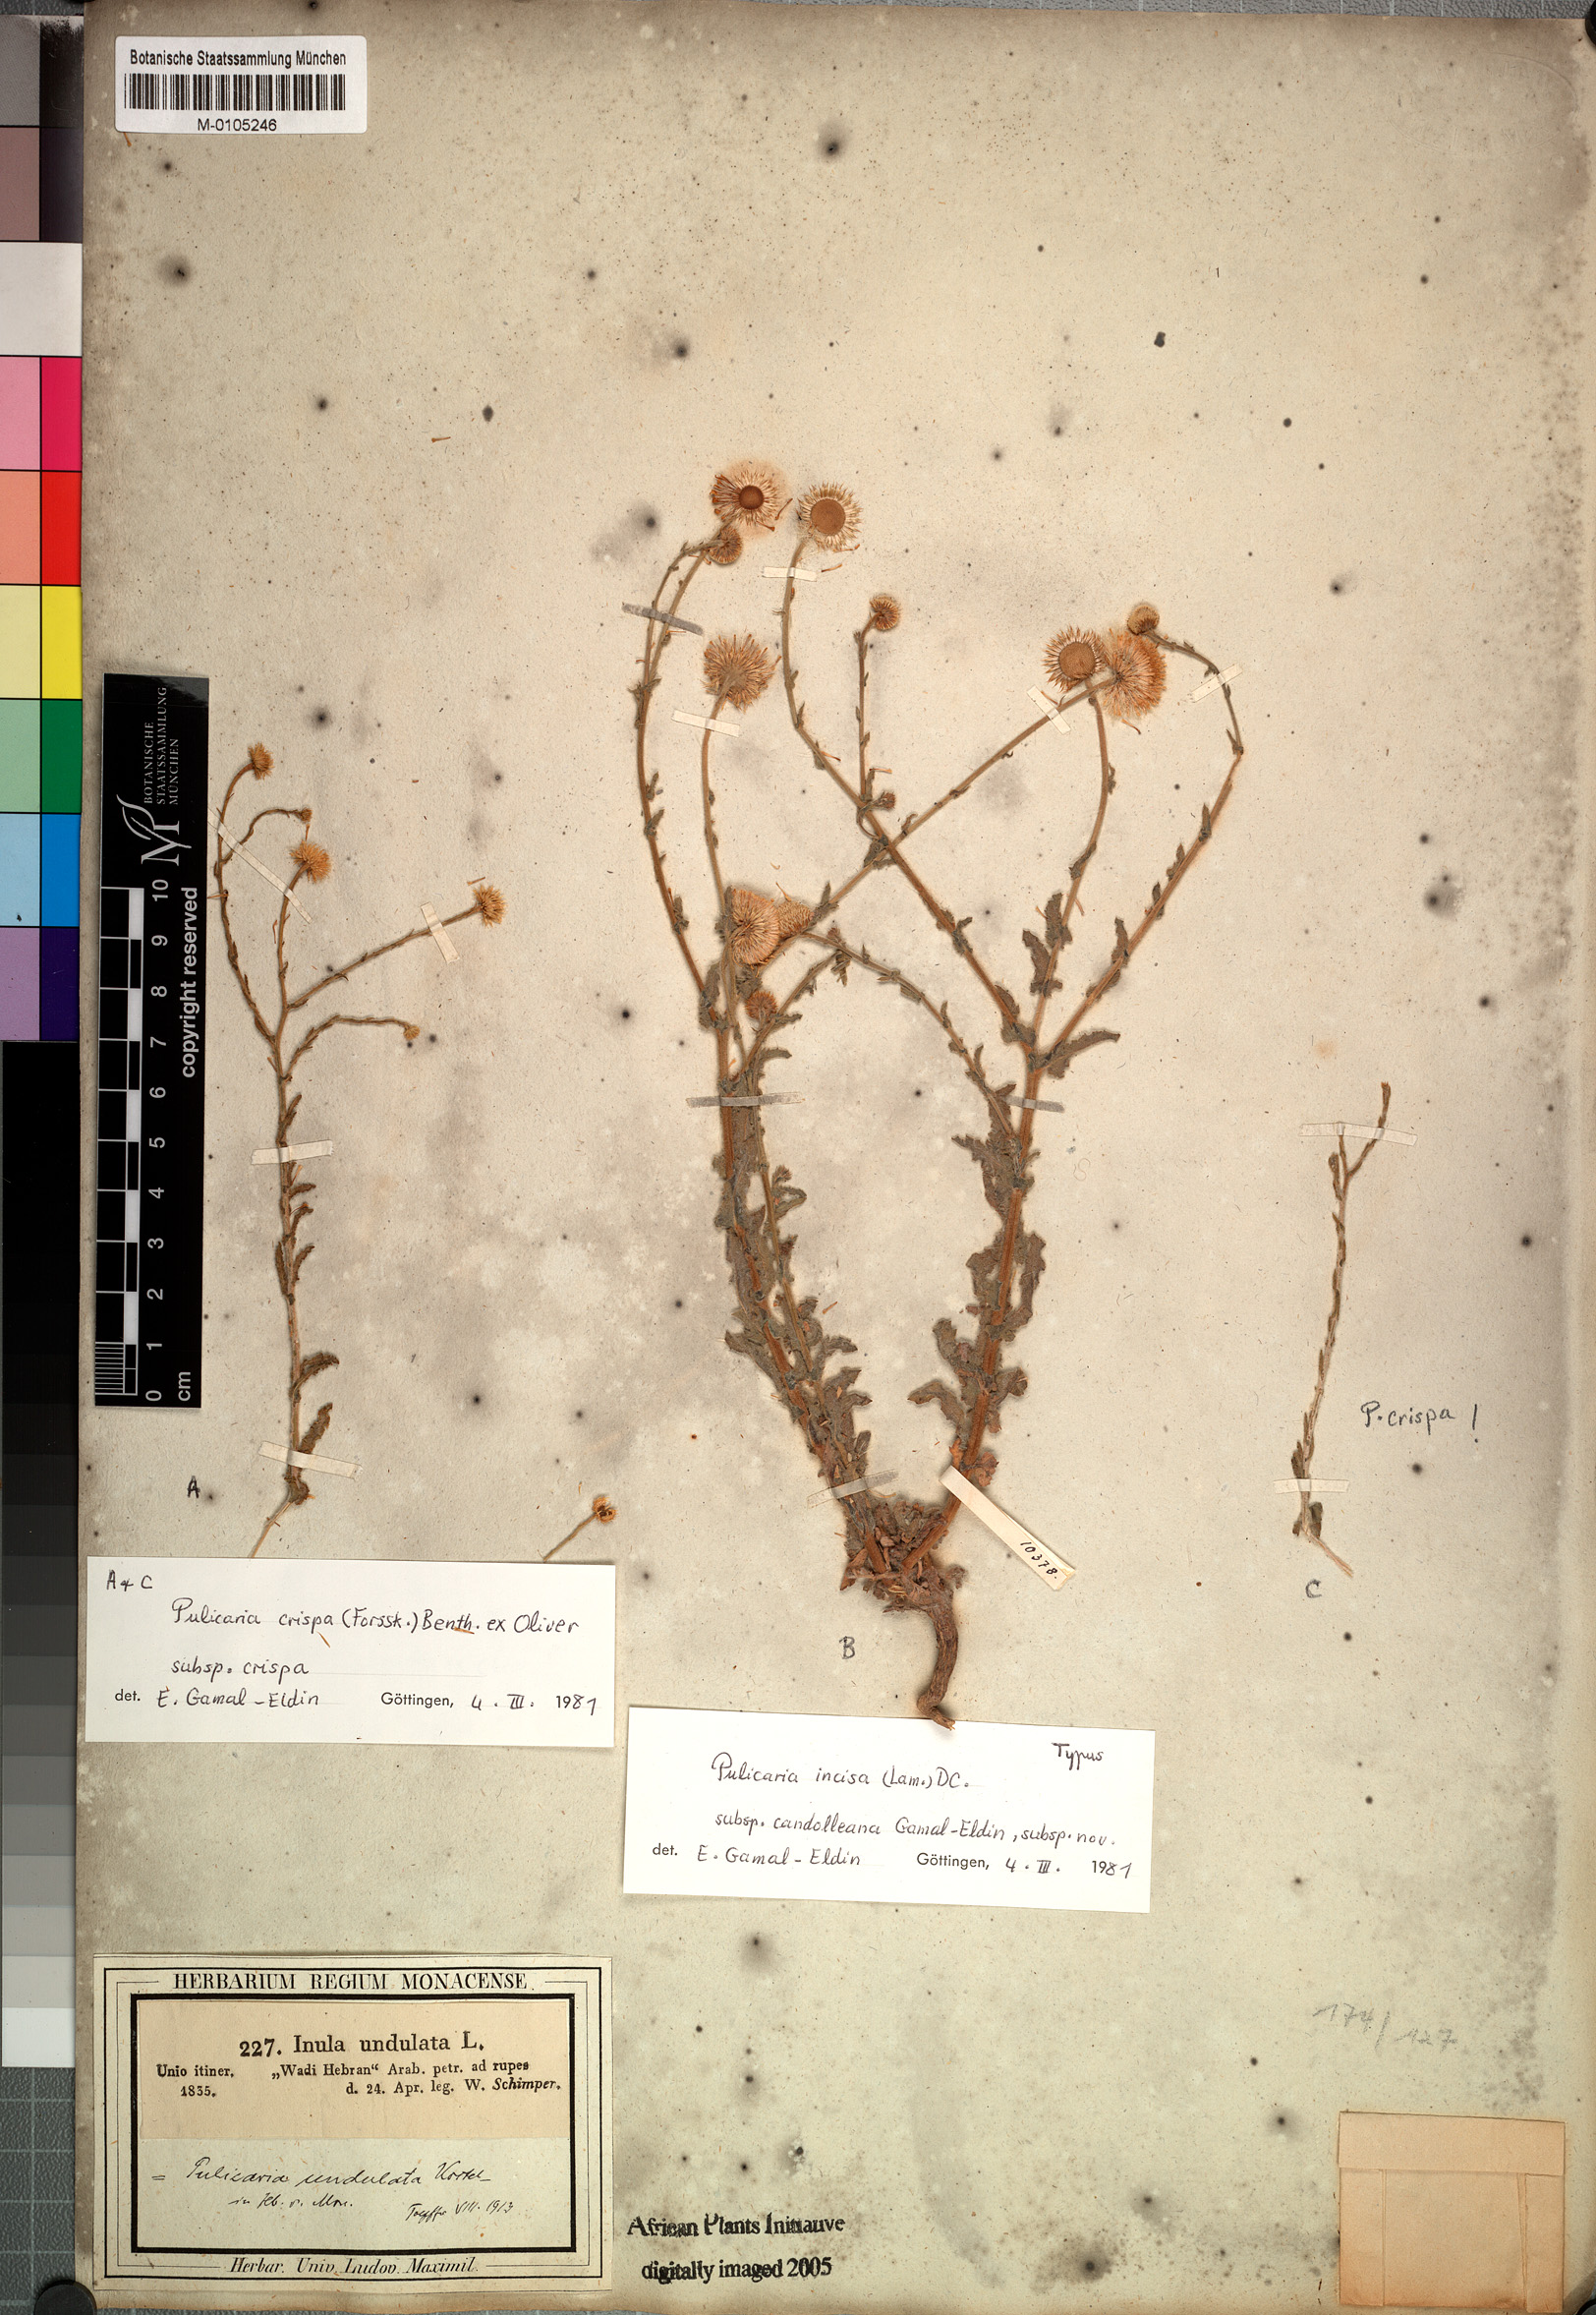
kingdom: Plantae
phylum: Tracheophyta
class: Magnoliopsida
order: Asterales
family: Asteraceae
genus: Pulicaria
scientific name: Pulicaria incisa
